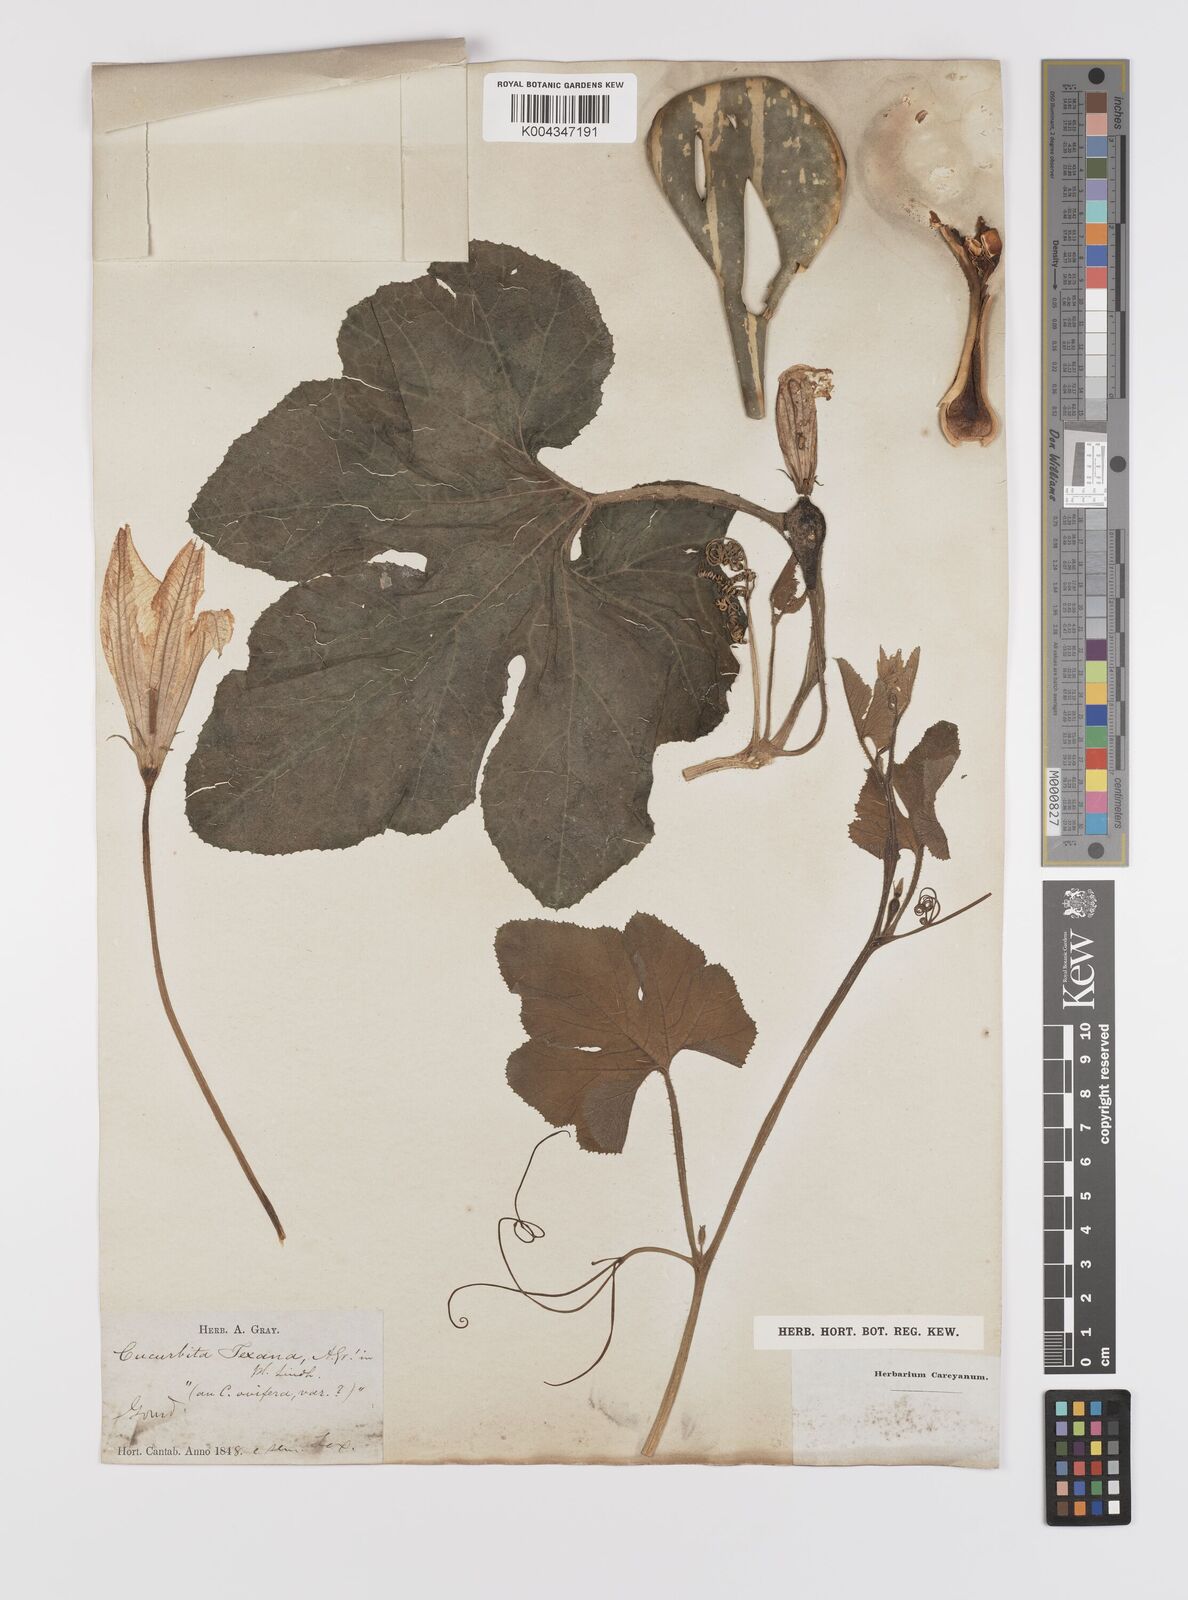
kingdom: Plantae
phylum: Tracheophyta
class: Magnoliopsida
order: Cucurbitales
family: Cucurbitaceae
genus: Cucurbita
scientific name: Cucurbita palmata
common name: Coyote-melon
